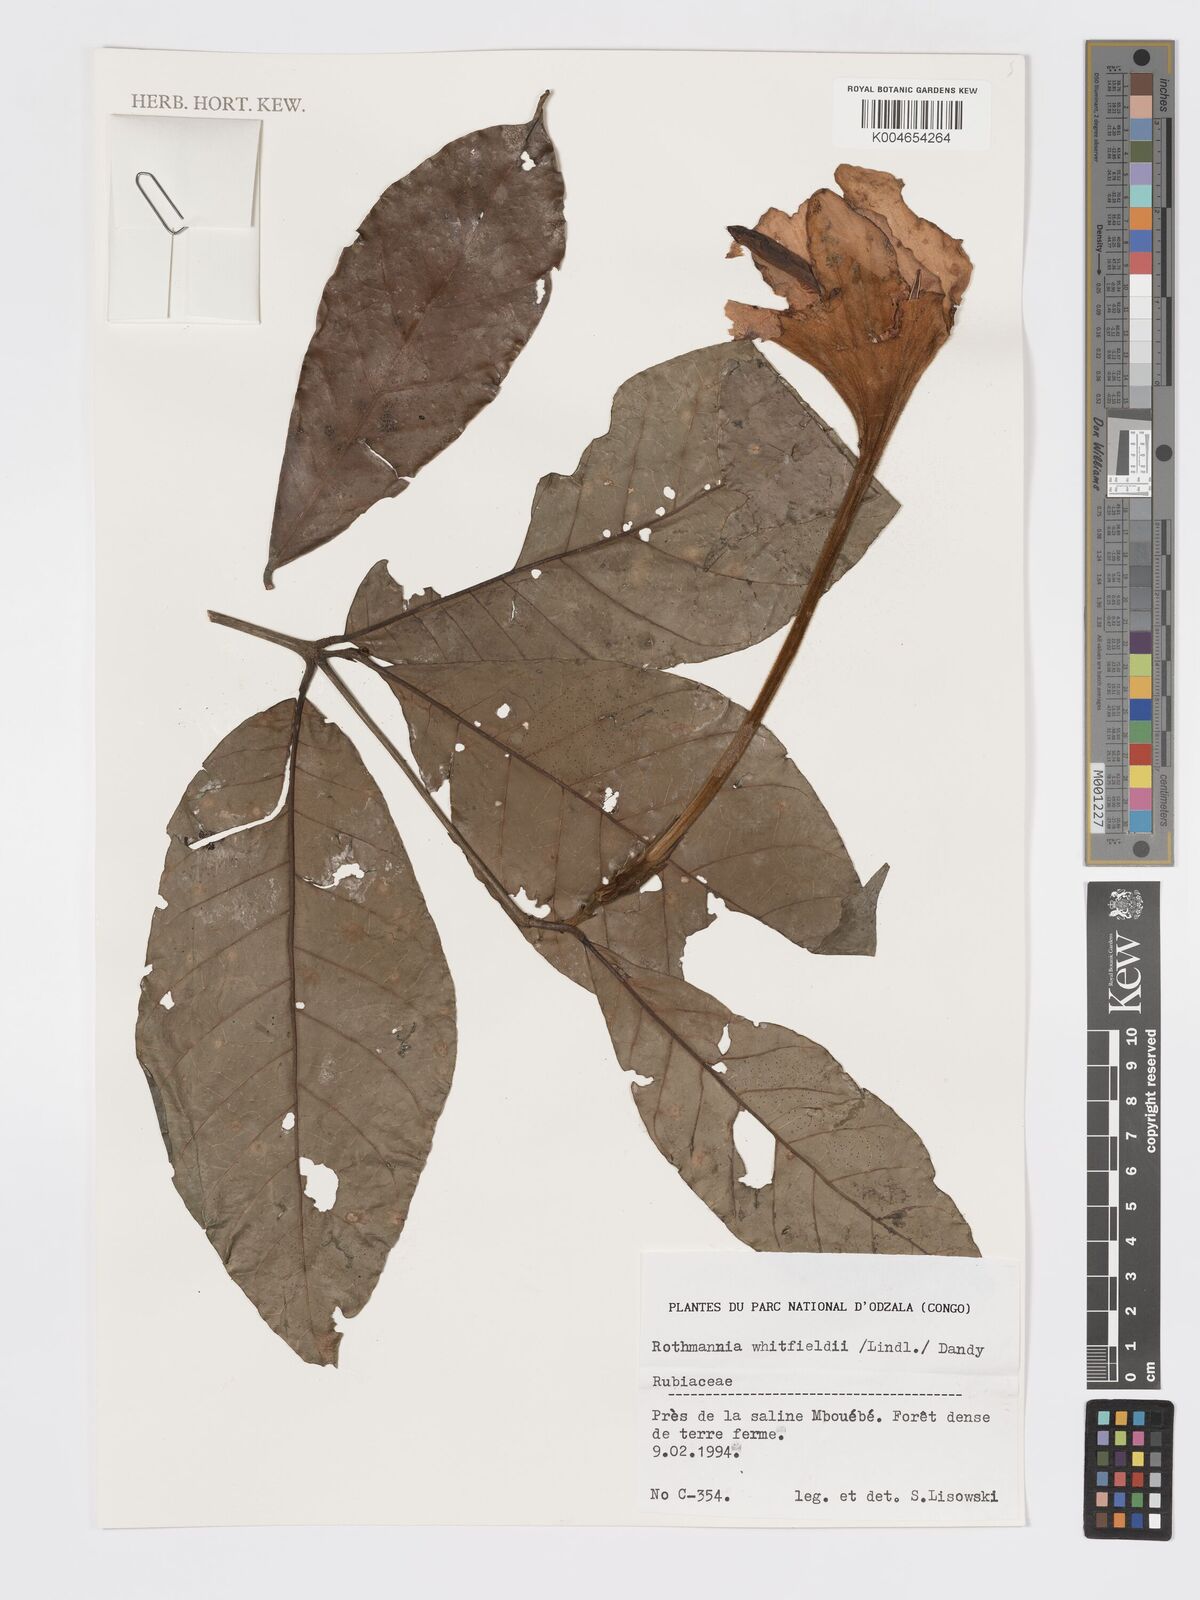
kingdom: Plantae
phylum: Tracheophyta
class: Magnoliopsida
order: Gentianales
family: Rubiaceae
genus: Rothmannia
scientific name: Rothmannia whitfieldii
